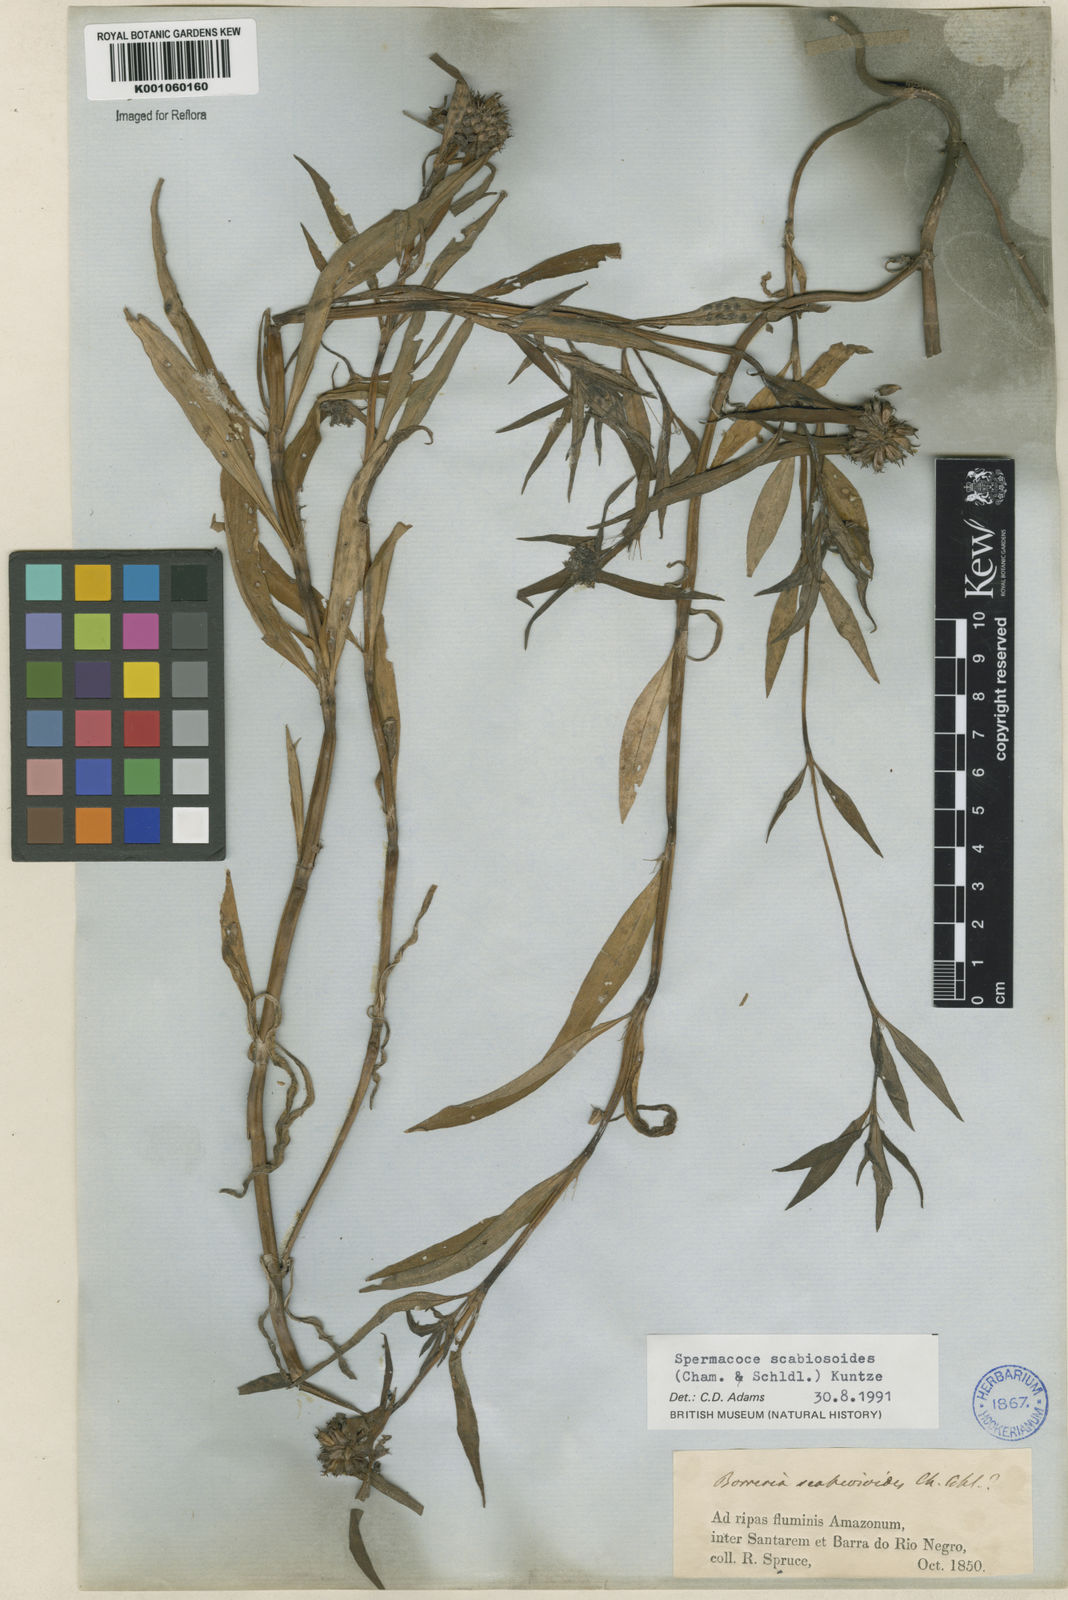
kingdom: Plantae
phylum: Tracheophyta
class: Magnoliopsida
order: Gentianales
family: Rubiaceae
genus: Spermacoce
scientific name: Spermacoce scabiosoides
